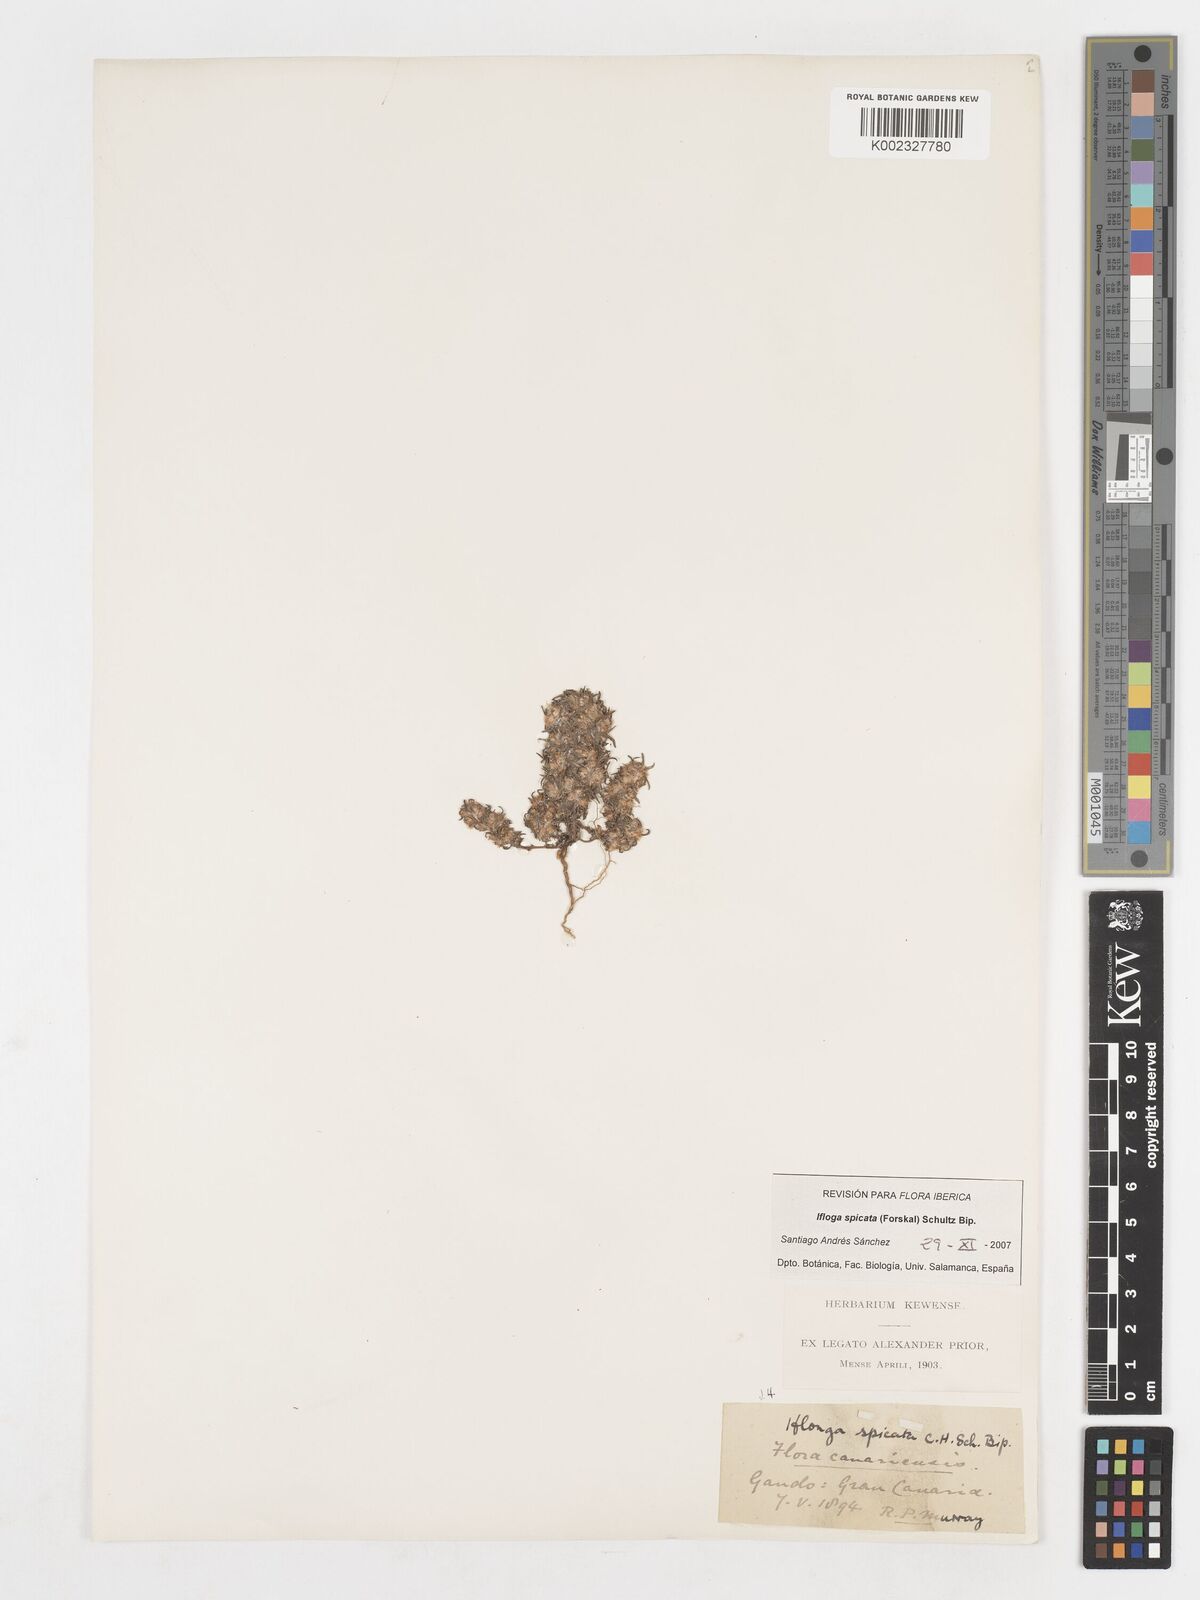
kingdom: Plantae
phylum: Tracheophyta
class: Magnoliopsida
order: Asterales
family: Asteraceae
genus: Ifloga
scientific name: Ifloga spicata
